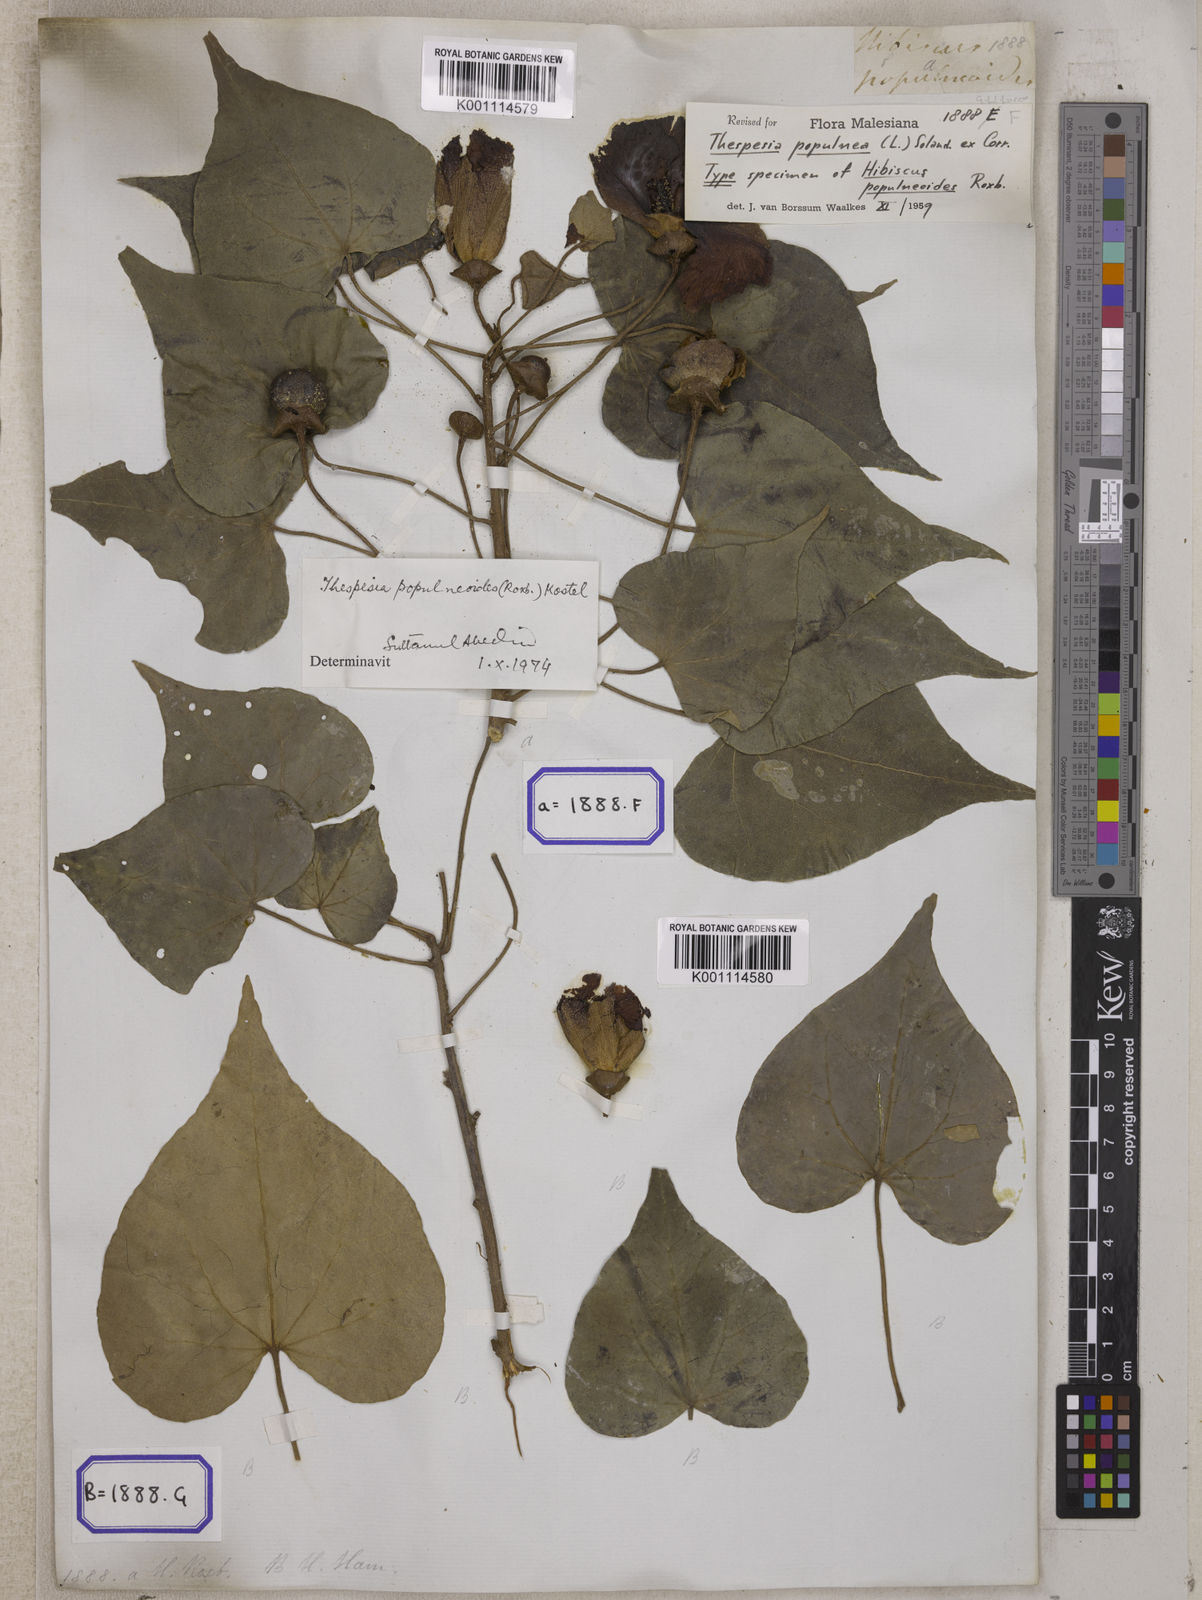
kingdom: Plantae
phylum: Tracheophyta
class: Magnoliopsida
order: Malvales
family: Malvaceae
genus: Thespesia
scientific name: Thespesia populnea
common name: Seaside mahoe
